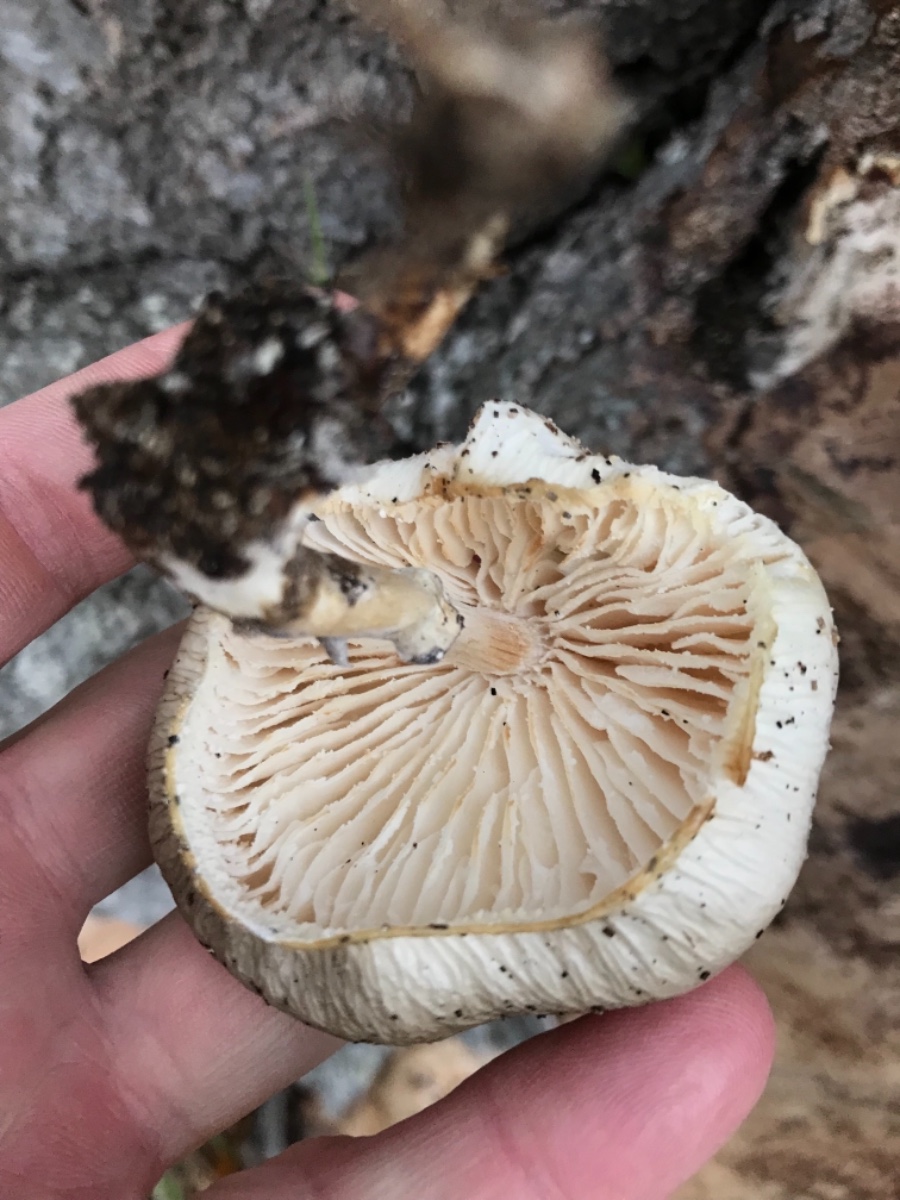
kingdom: Fungi
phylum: Basidiomycota
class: Agaricomycetes
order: Agaricales
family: Physalacriaceae
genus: Mucidula
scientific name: Mucidula mucida
